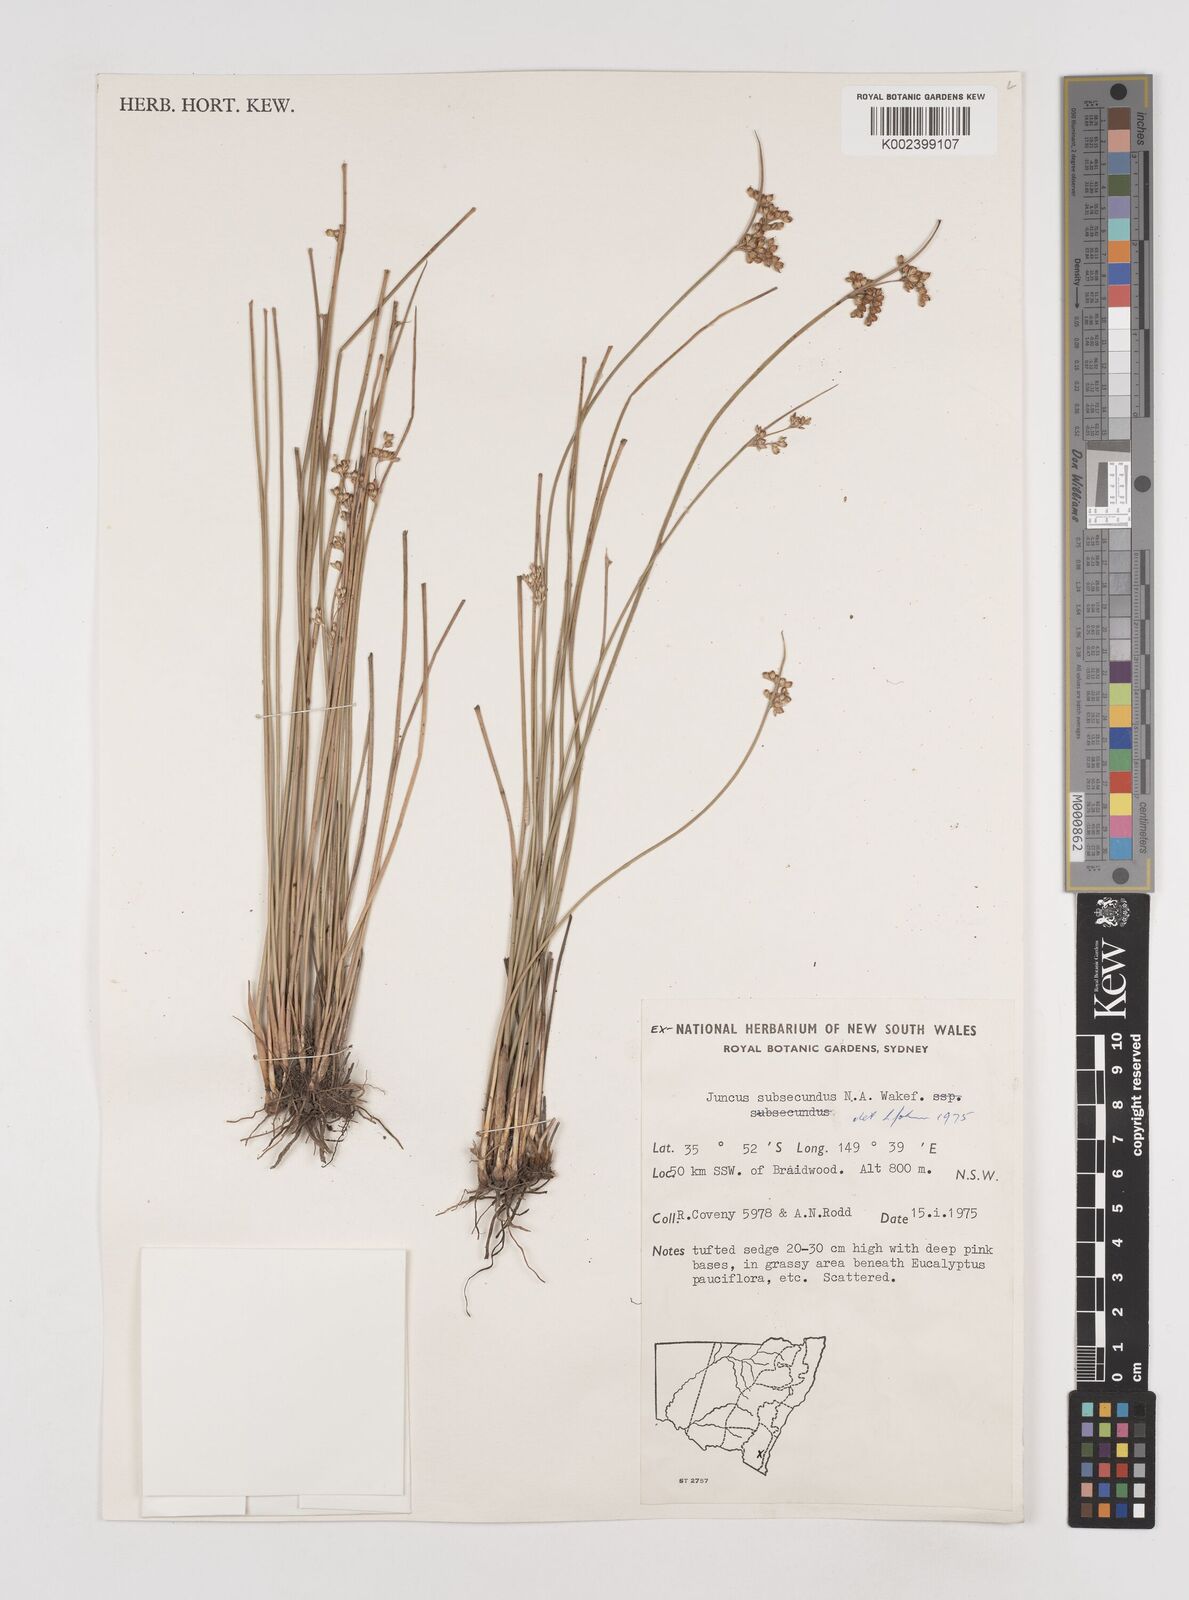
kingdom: Plantae
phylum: Tracheophyta
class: Liliopsida
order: Poales
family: Juncaceae
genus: Juncus
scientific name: Juncus subsecundus
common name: Fingered rush
